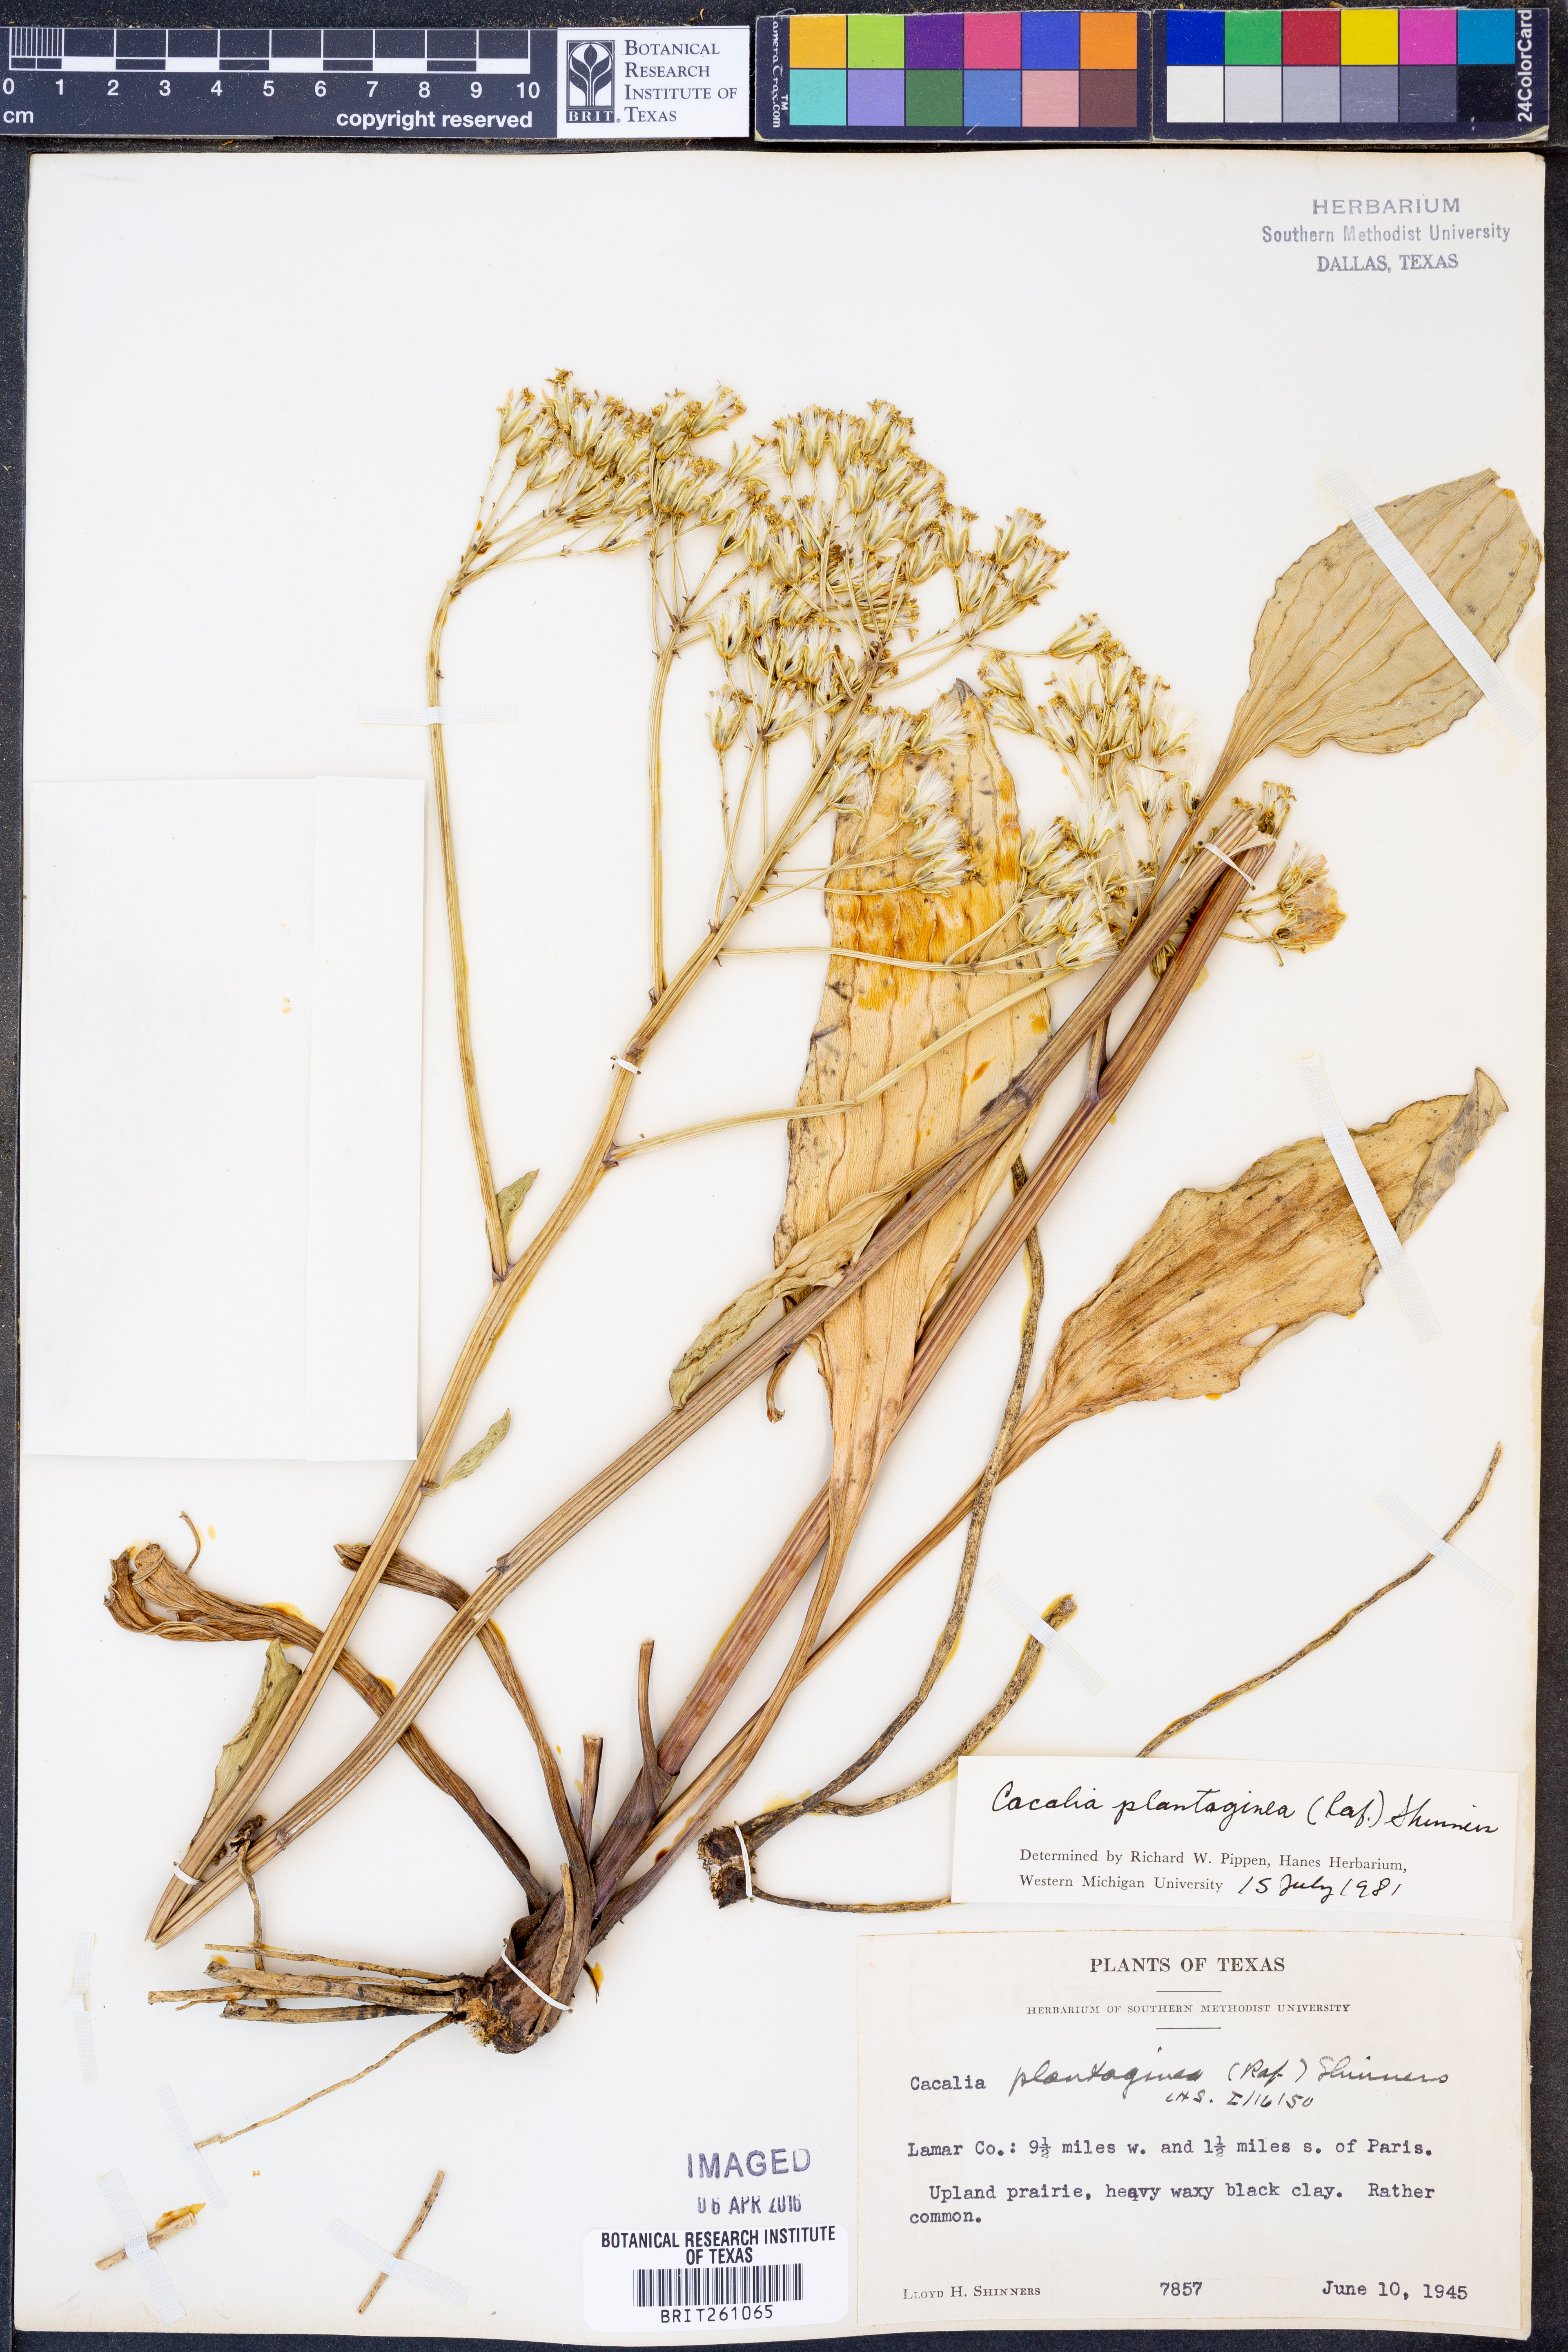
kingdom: Plantae
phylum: Tracheophyta
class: Magnoliopsida
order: Asterales
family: Asteraceae
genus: Arnoglossum
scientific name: Arnoglossum plantagineum
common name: Groove-stemmed indian-plantain
